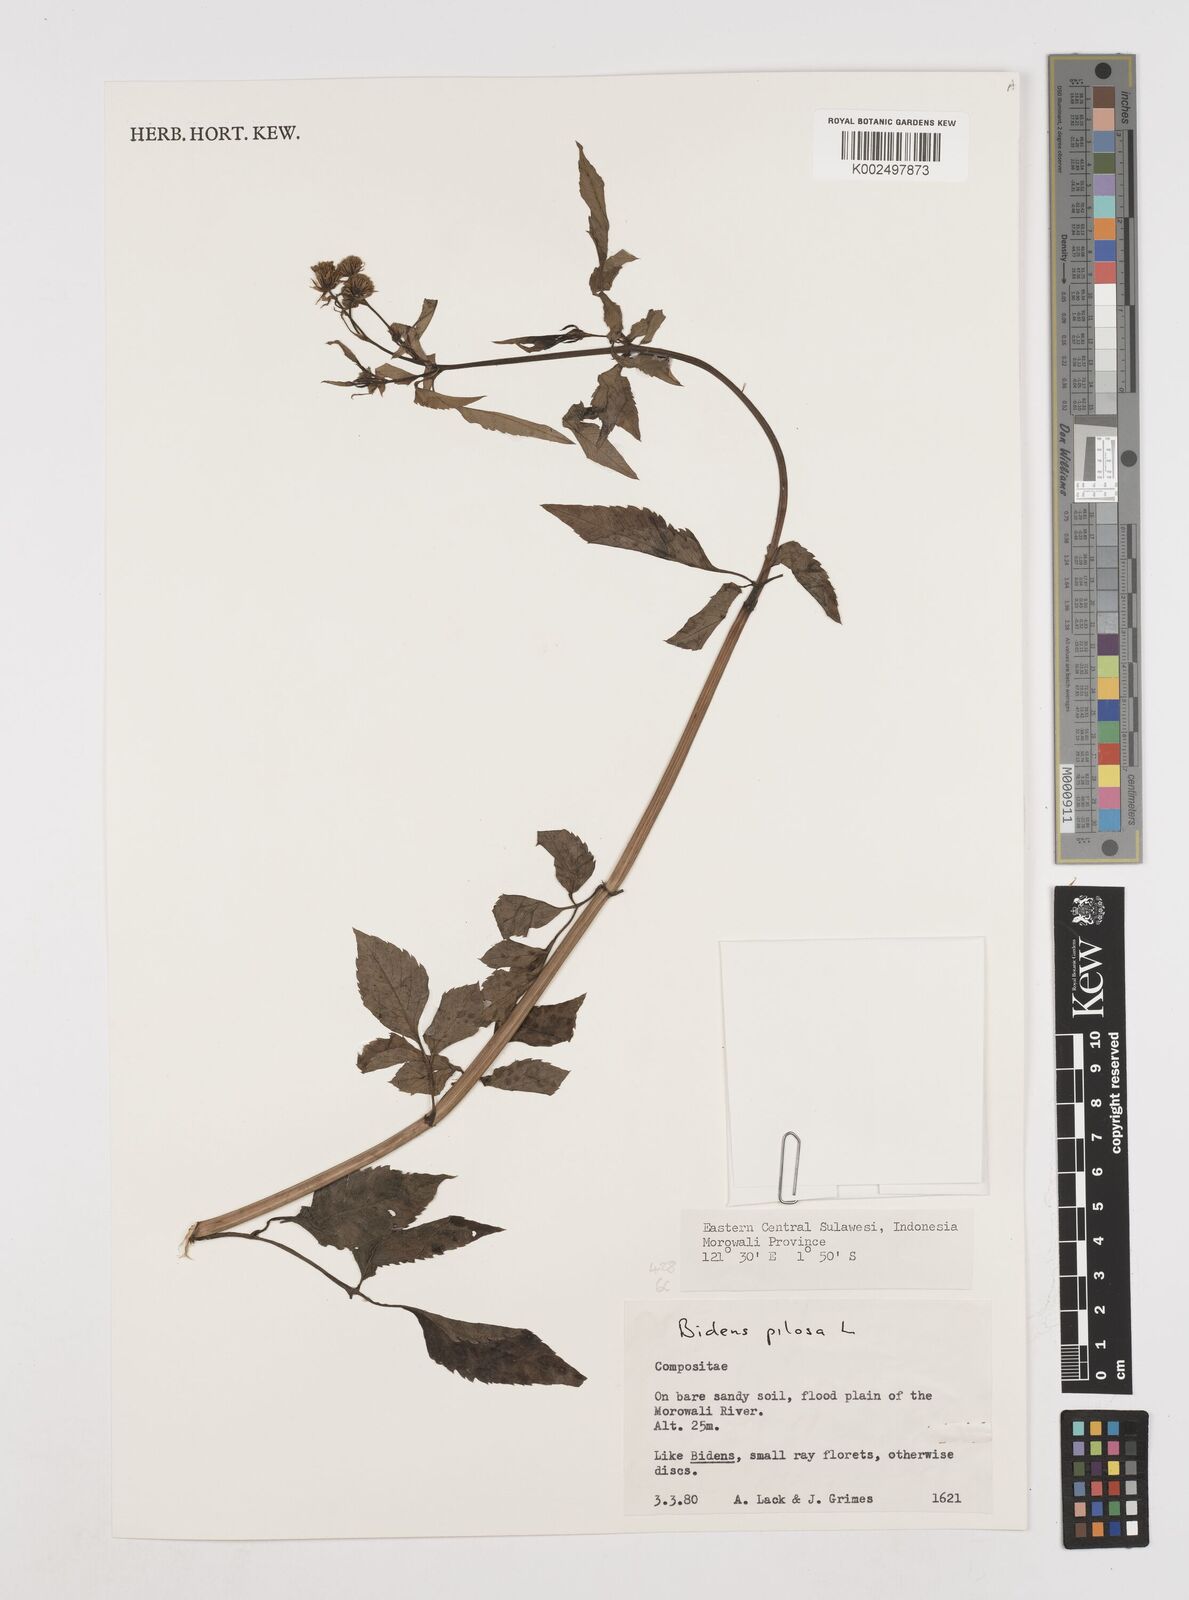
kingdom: Plantae
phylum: Tracheophyta
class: Magnoliopsida
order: Asterales
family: Asteraceae
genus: Bidens
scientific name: Bidens pilosa
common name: Black-jack
